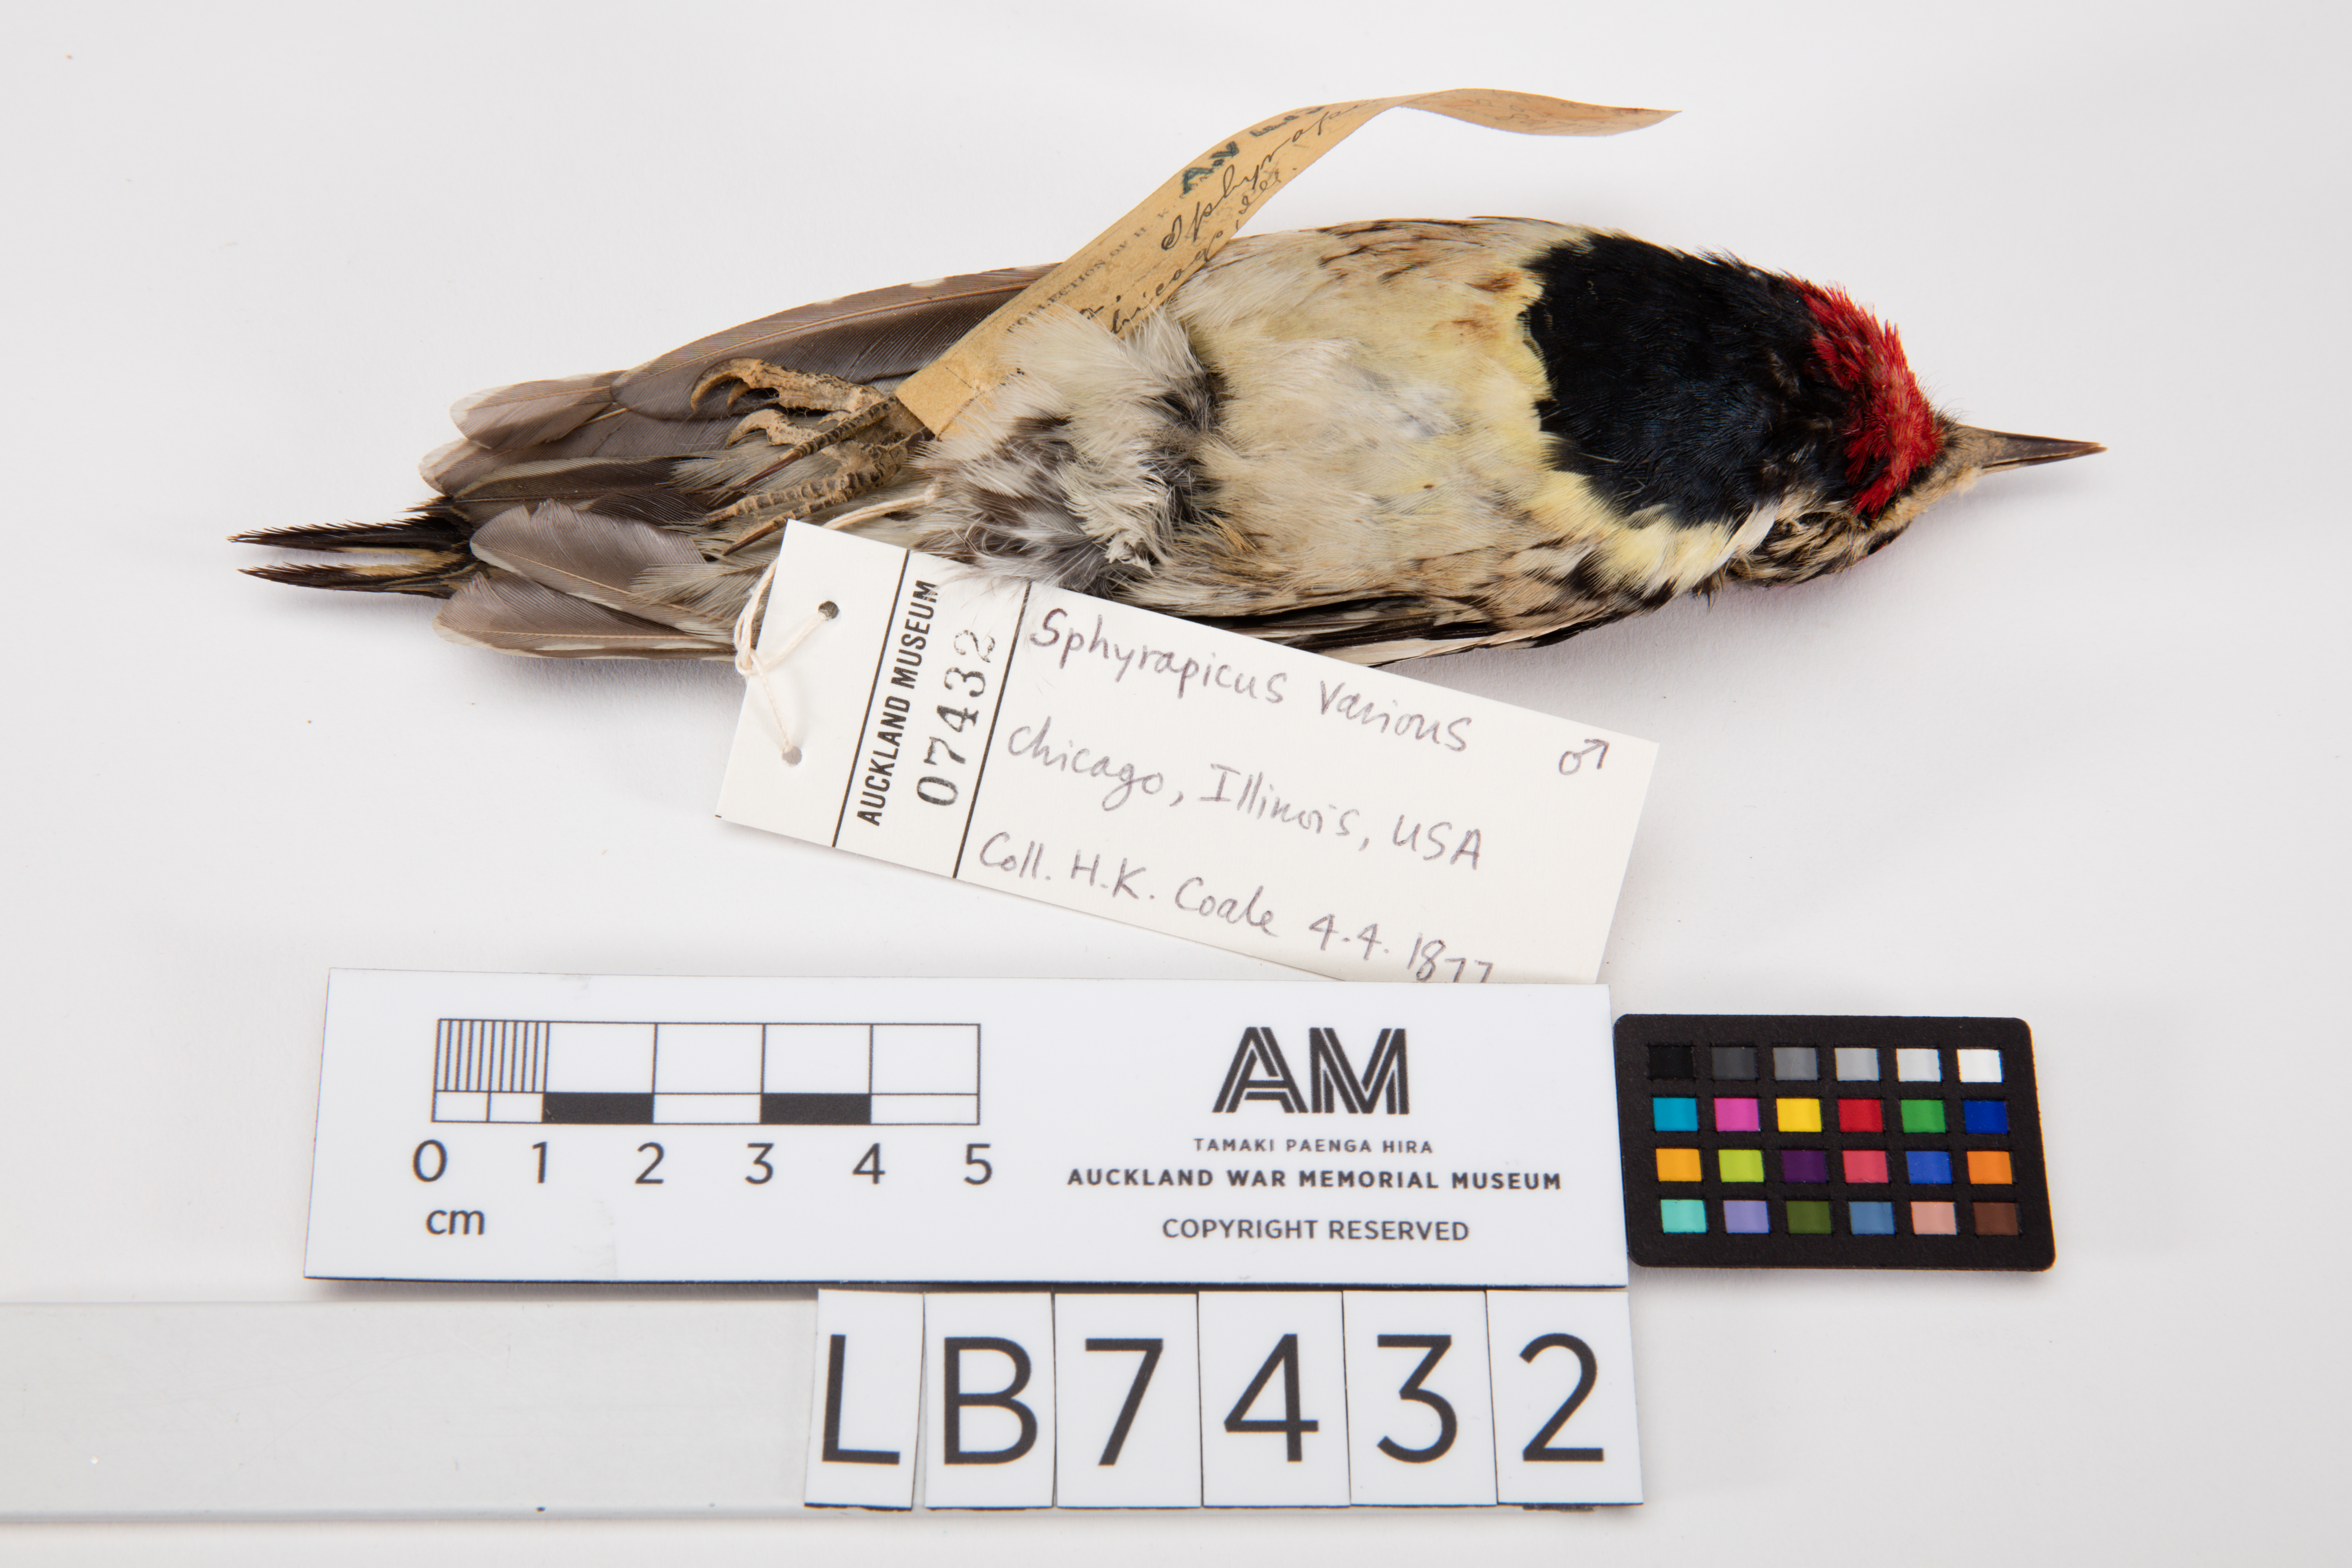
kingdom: Animalia
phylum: Chordata
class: Aves
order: Piciformes
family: Picidae
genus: Sphyrapicus
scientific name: Sphyrapicus varius
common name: Yellow-bellied sapsucker
